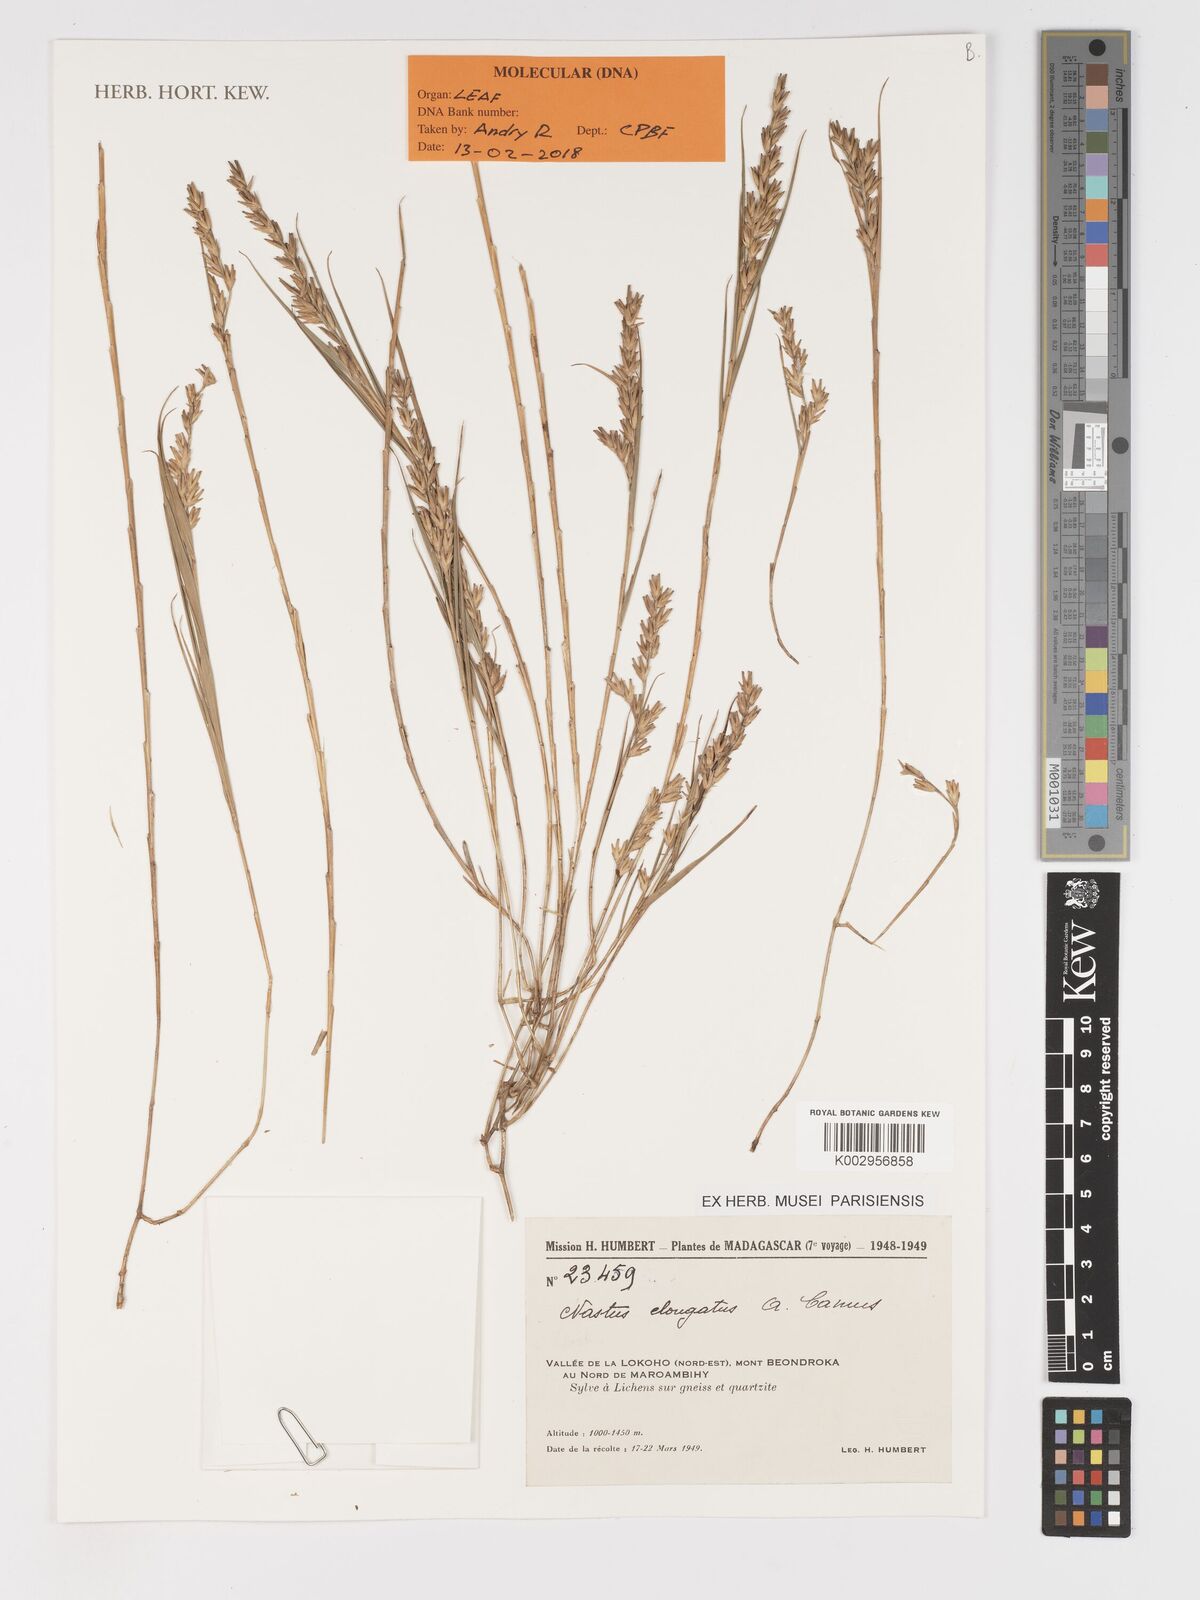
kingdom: Plantae
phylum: Tracheophyta
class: Liliopsida
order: Poales
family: Poaceae
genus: Nastus
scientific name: Nastus elongatus
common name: Spider bamboo
